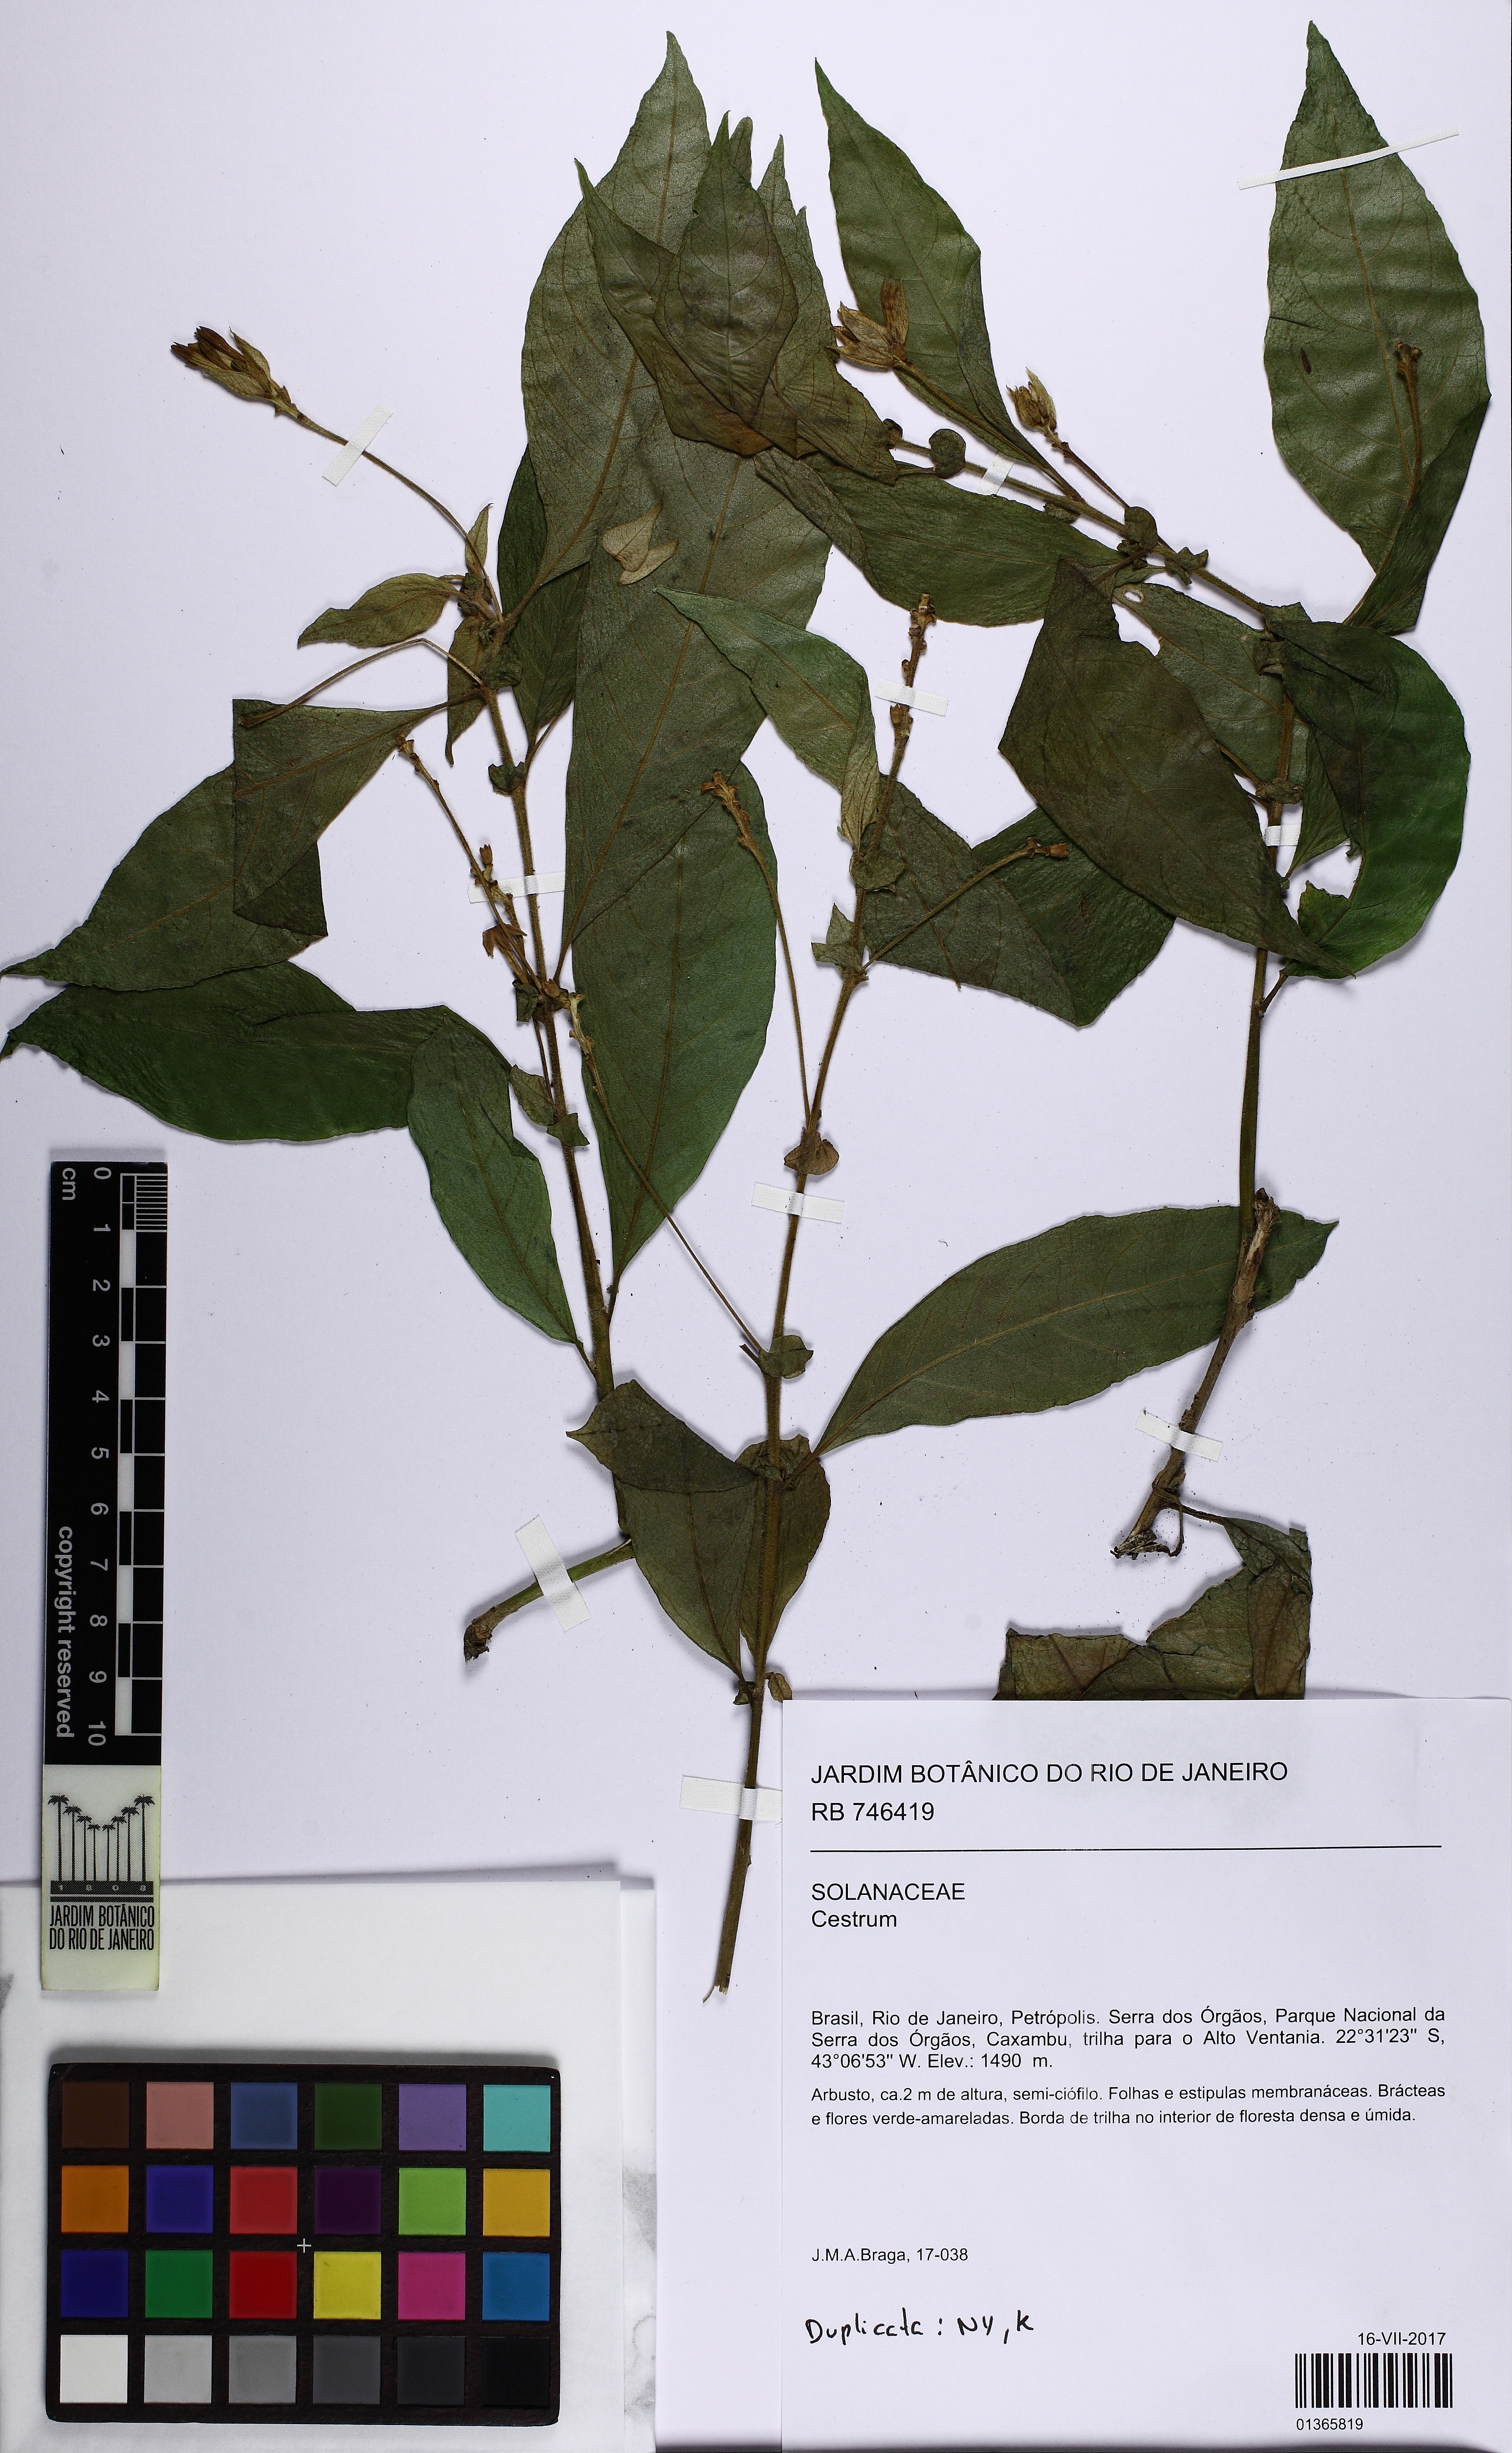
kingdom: Plantae
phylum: Tracheophyta
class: Magnoliopsida
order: Solanales
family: Solanaceae
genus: Cestrum
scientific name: Cestrum
